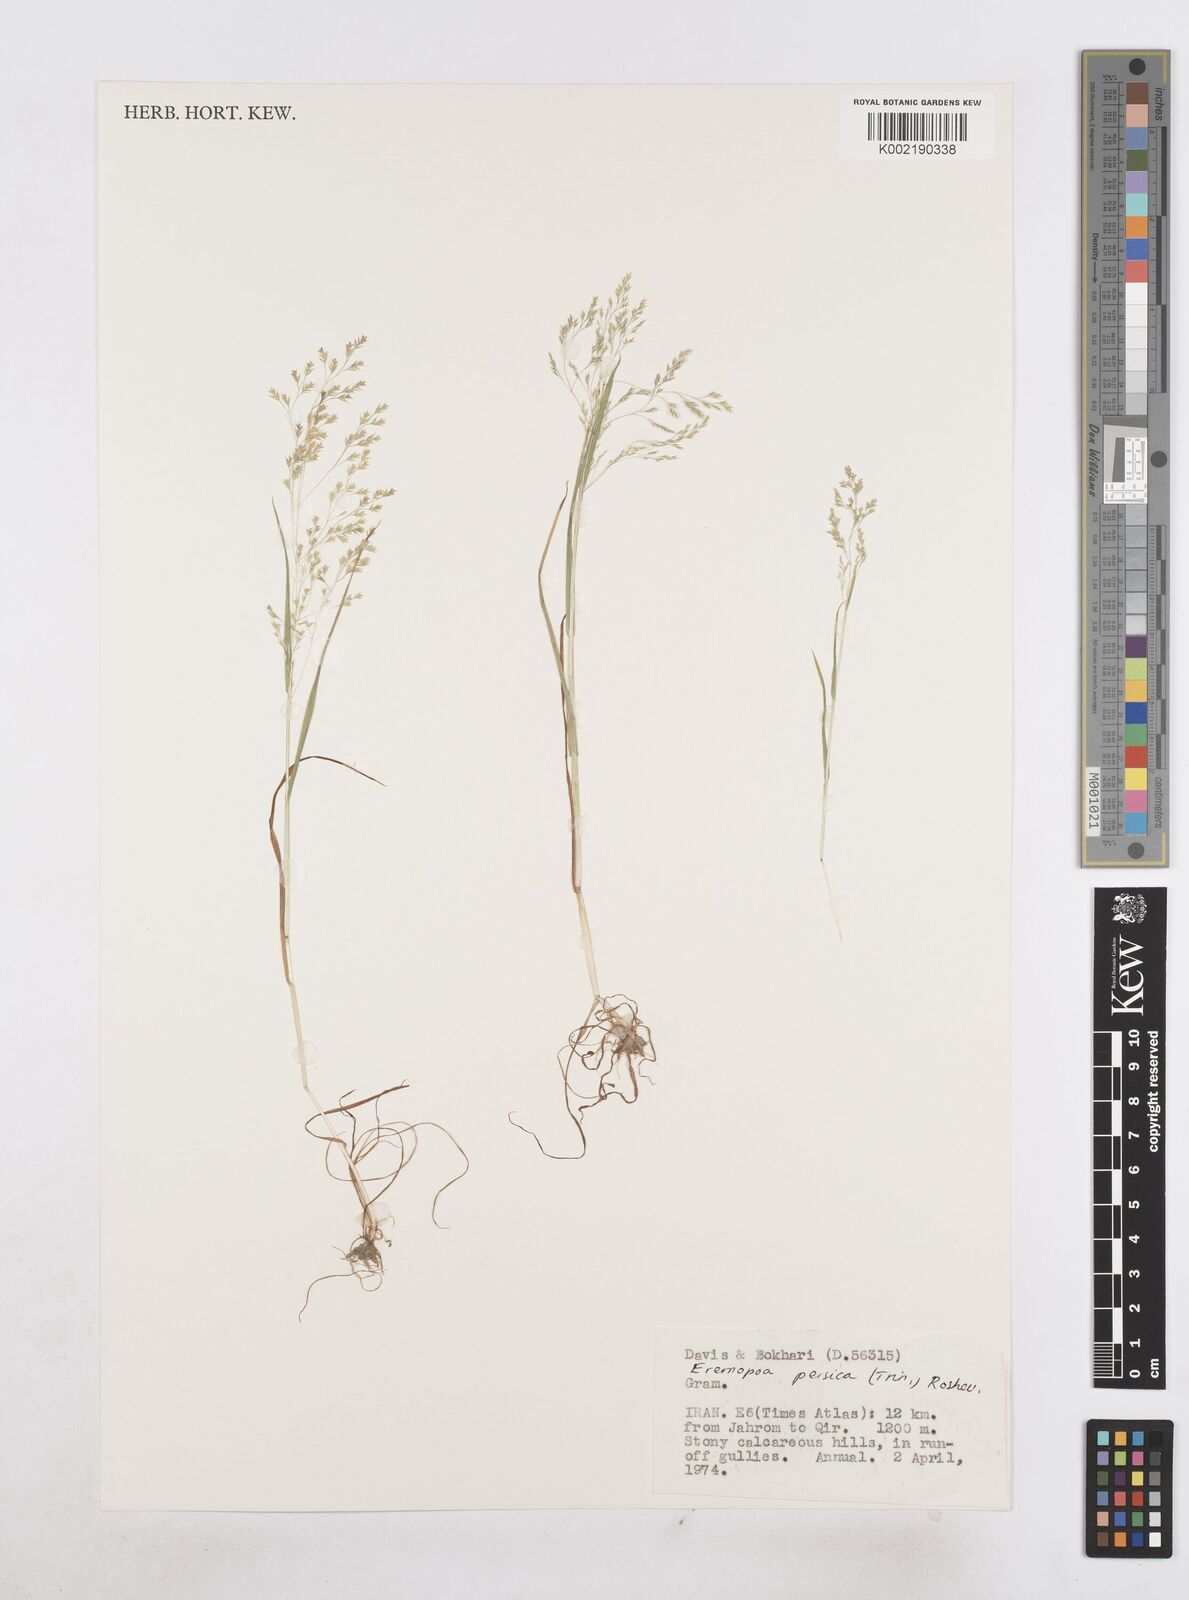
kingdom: Plantae
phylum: Tracheophyta
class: Liliopsida
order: Poales
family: Poaceae
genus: Poa
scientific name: Poa persica
